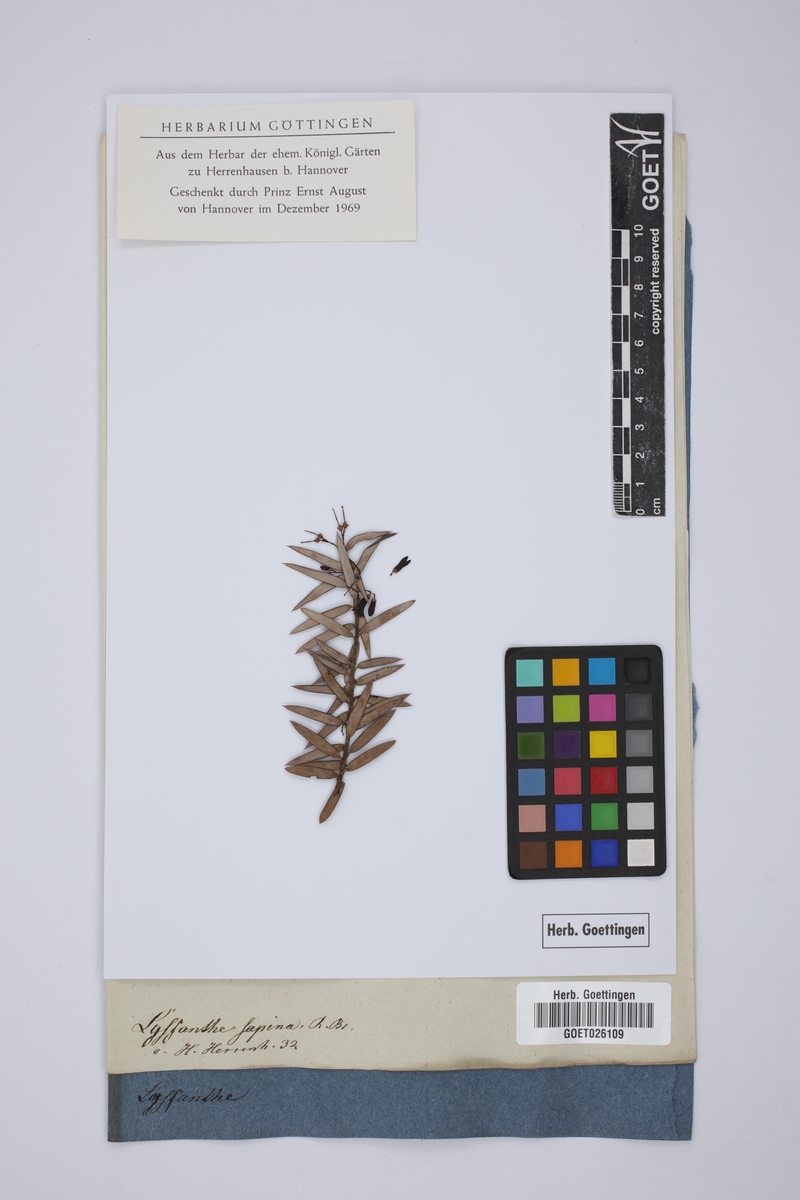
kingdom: Plantae
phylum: Tracheophyta
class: Magnoliopsida
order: Ericales
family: Ericaceae
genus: Lissanthe
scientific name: Lissanthe sapida
